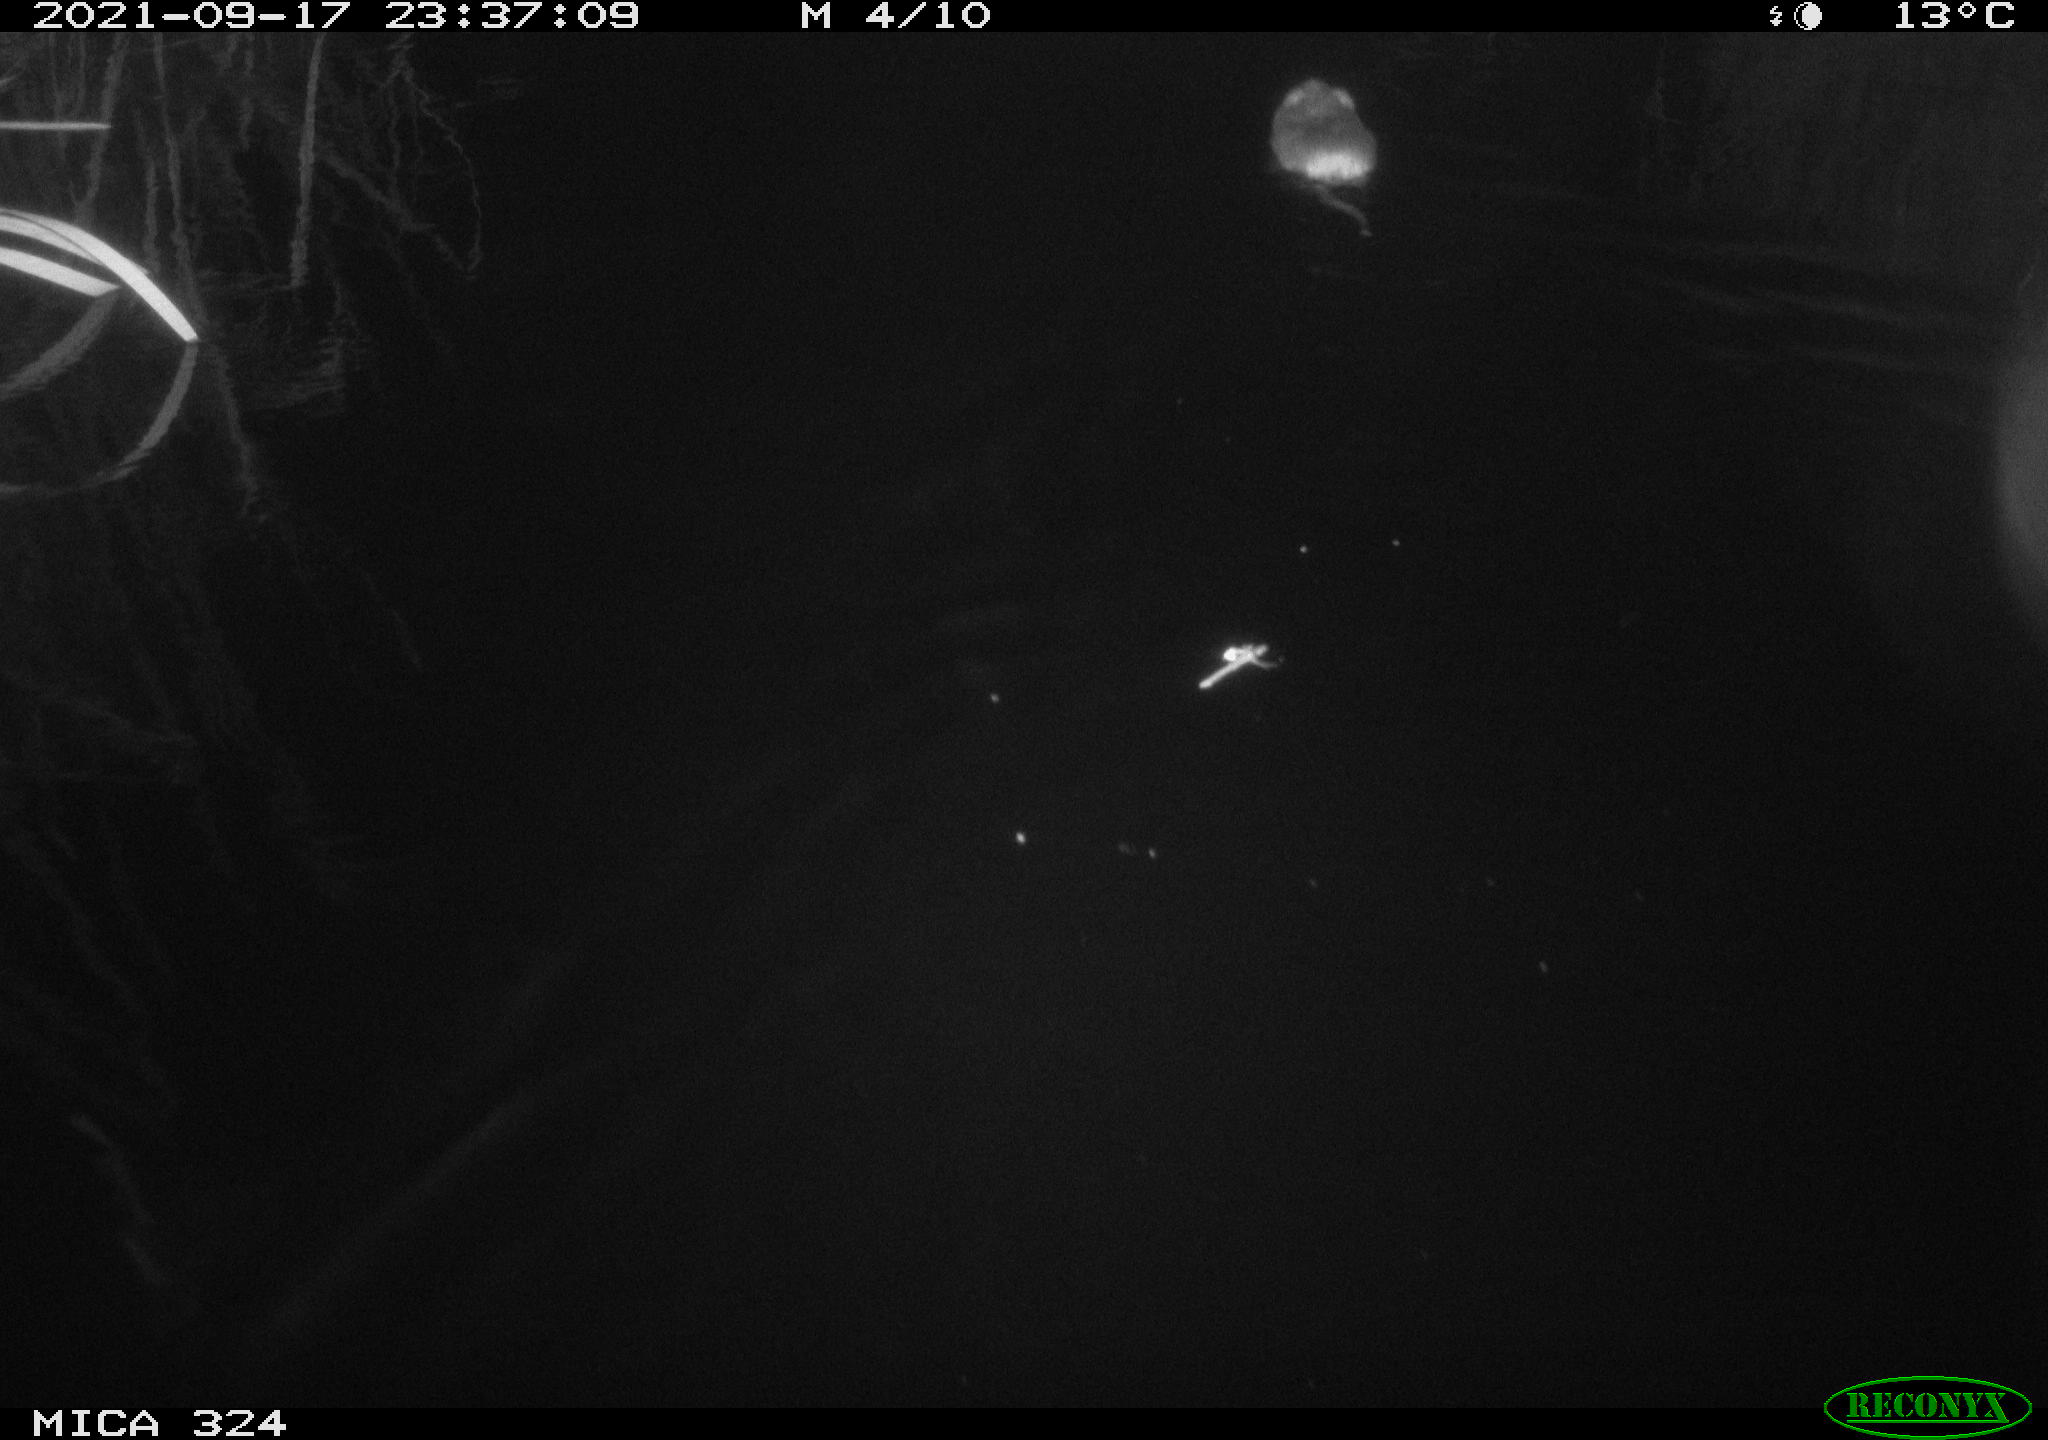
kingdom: Animalia
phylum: Chordata
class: Mammalia
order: Rodentia
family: Cricetidae
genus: Ondatra
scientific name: Ondatra zibethicus
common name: Muskrat
